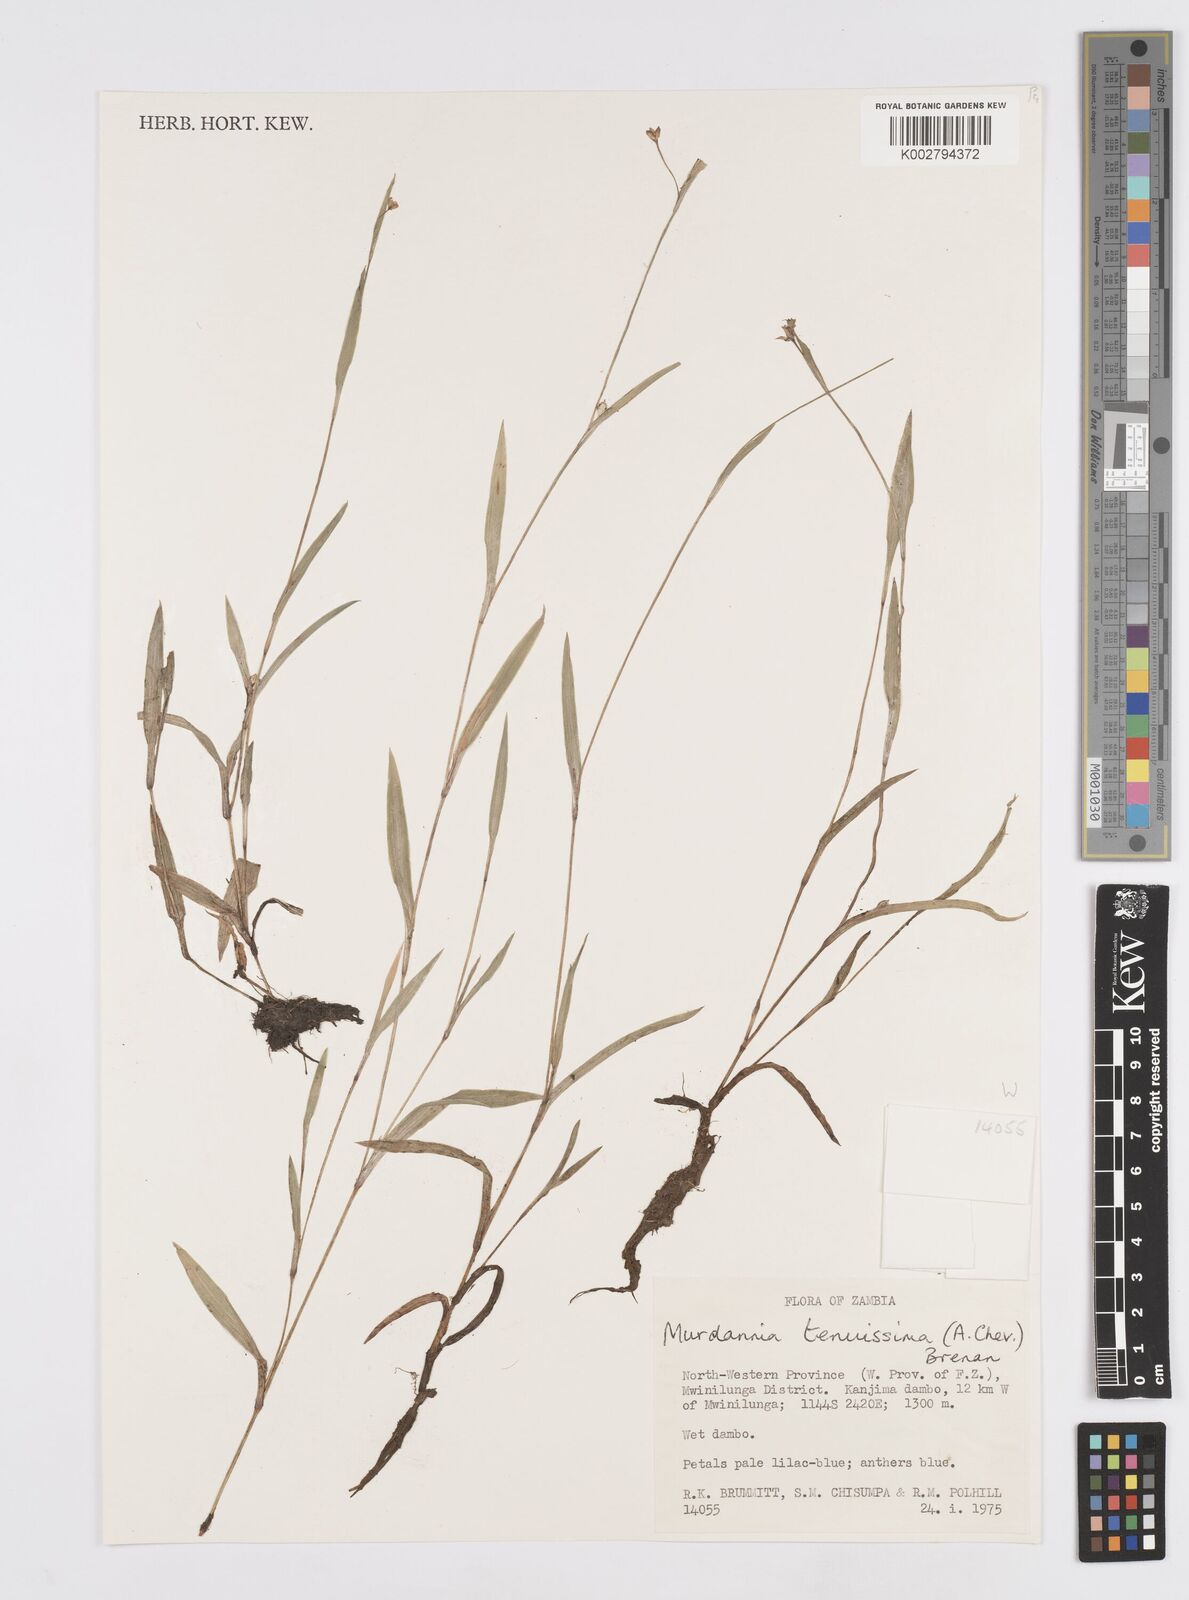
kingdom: Plantae
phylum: Tracheophyta
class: Liliopsida
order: Commelinales
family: Commelinaceae
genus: Murdannia
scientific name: Murdannia tenuissima
